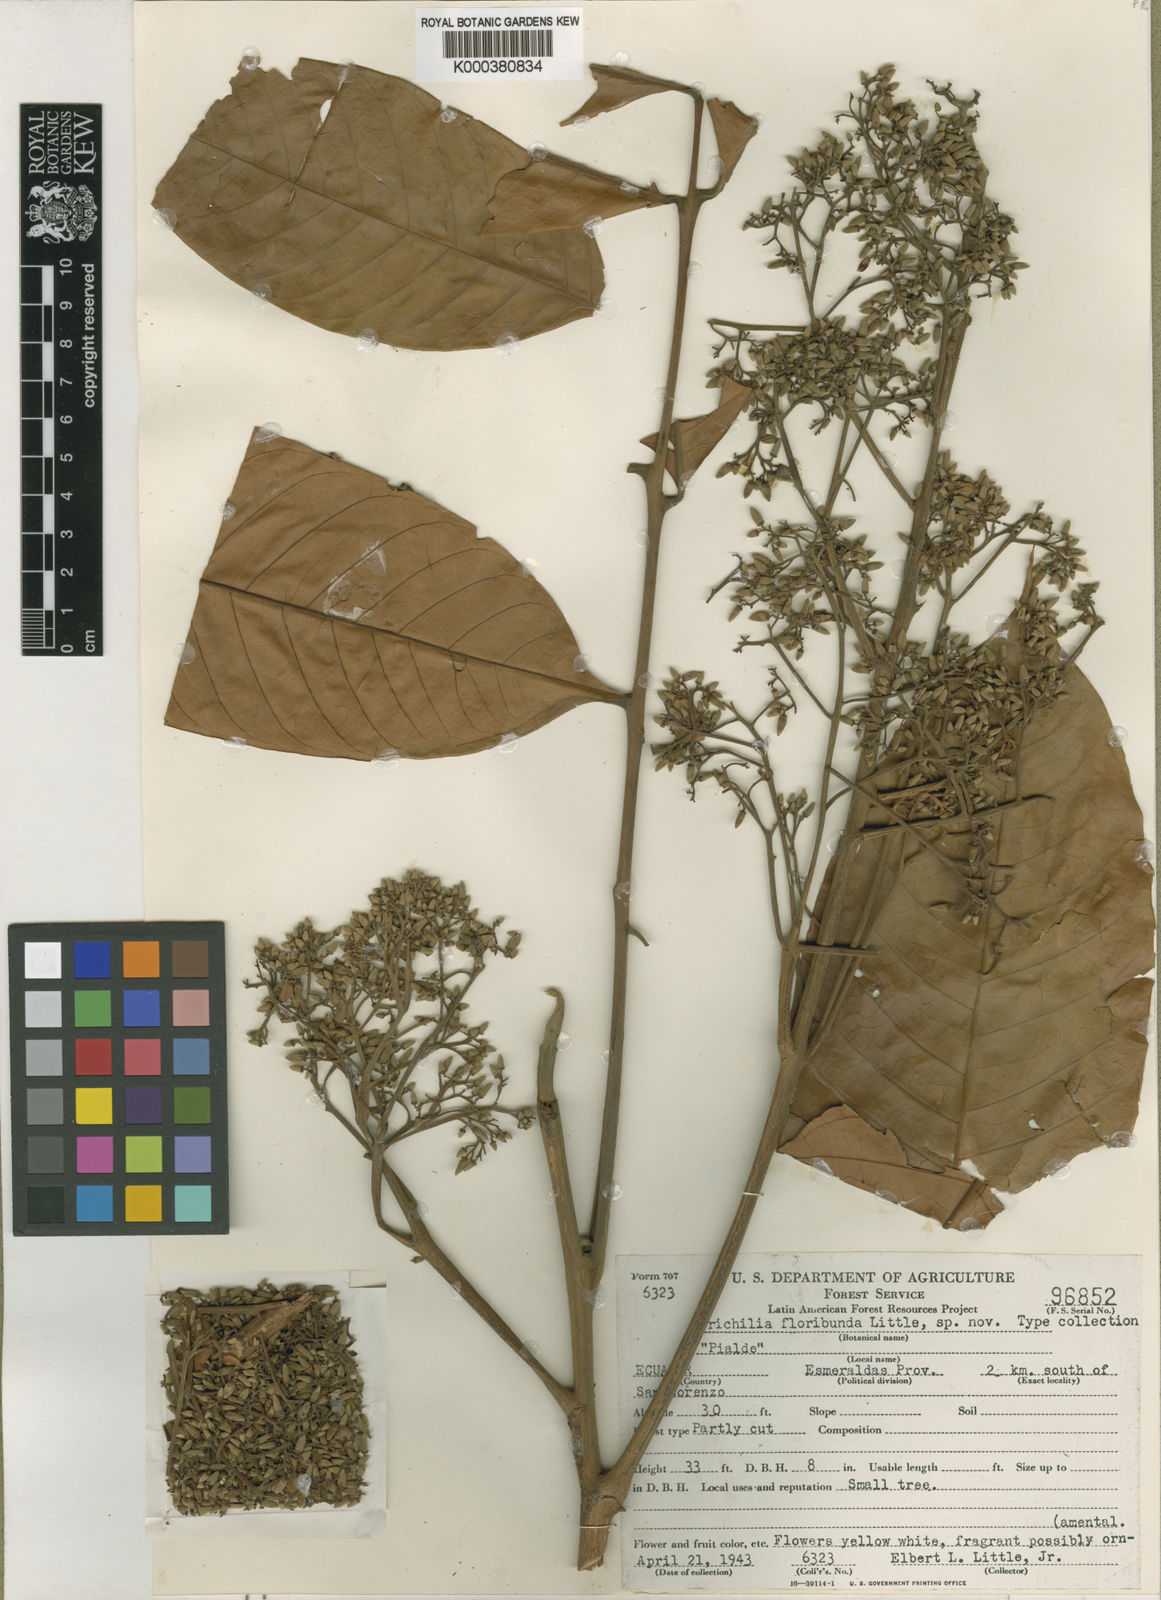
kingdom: Plantae
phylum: Tracheophyta
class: Magnoliopsida
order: Sapindales
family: Meliaceae
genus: Trichilia
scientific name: Trichilia poeppigii
